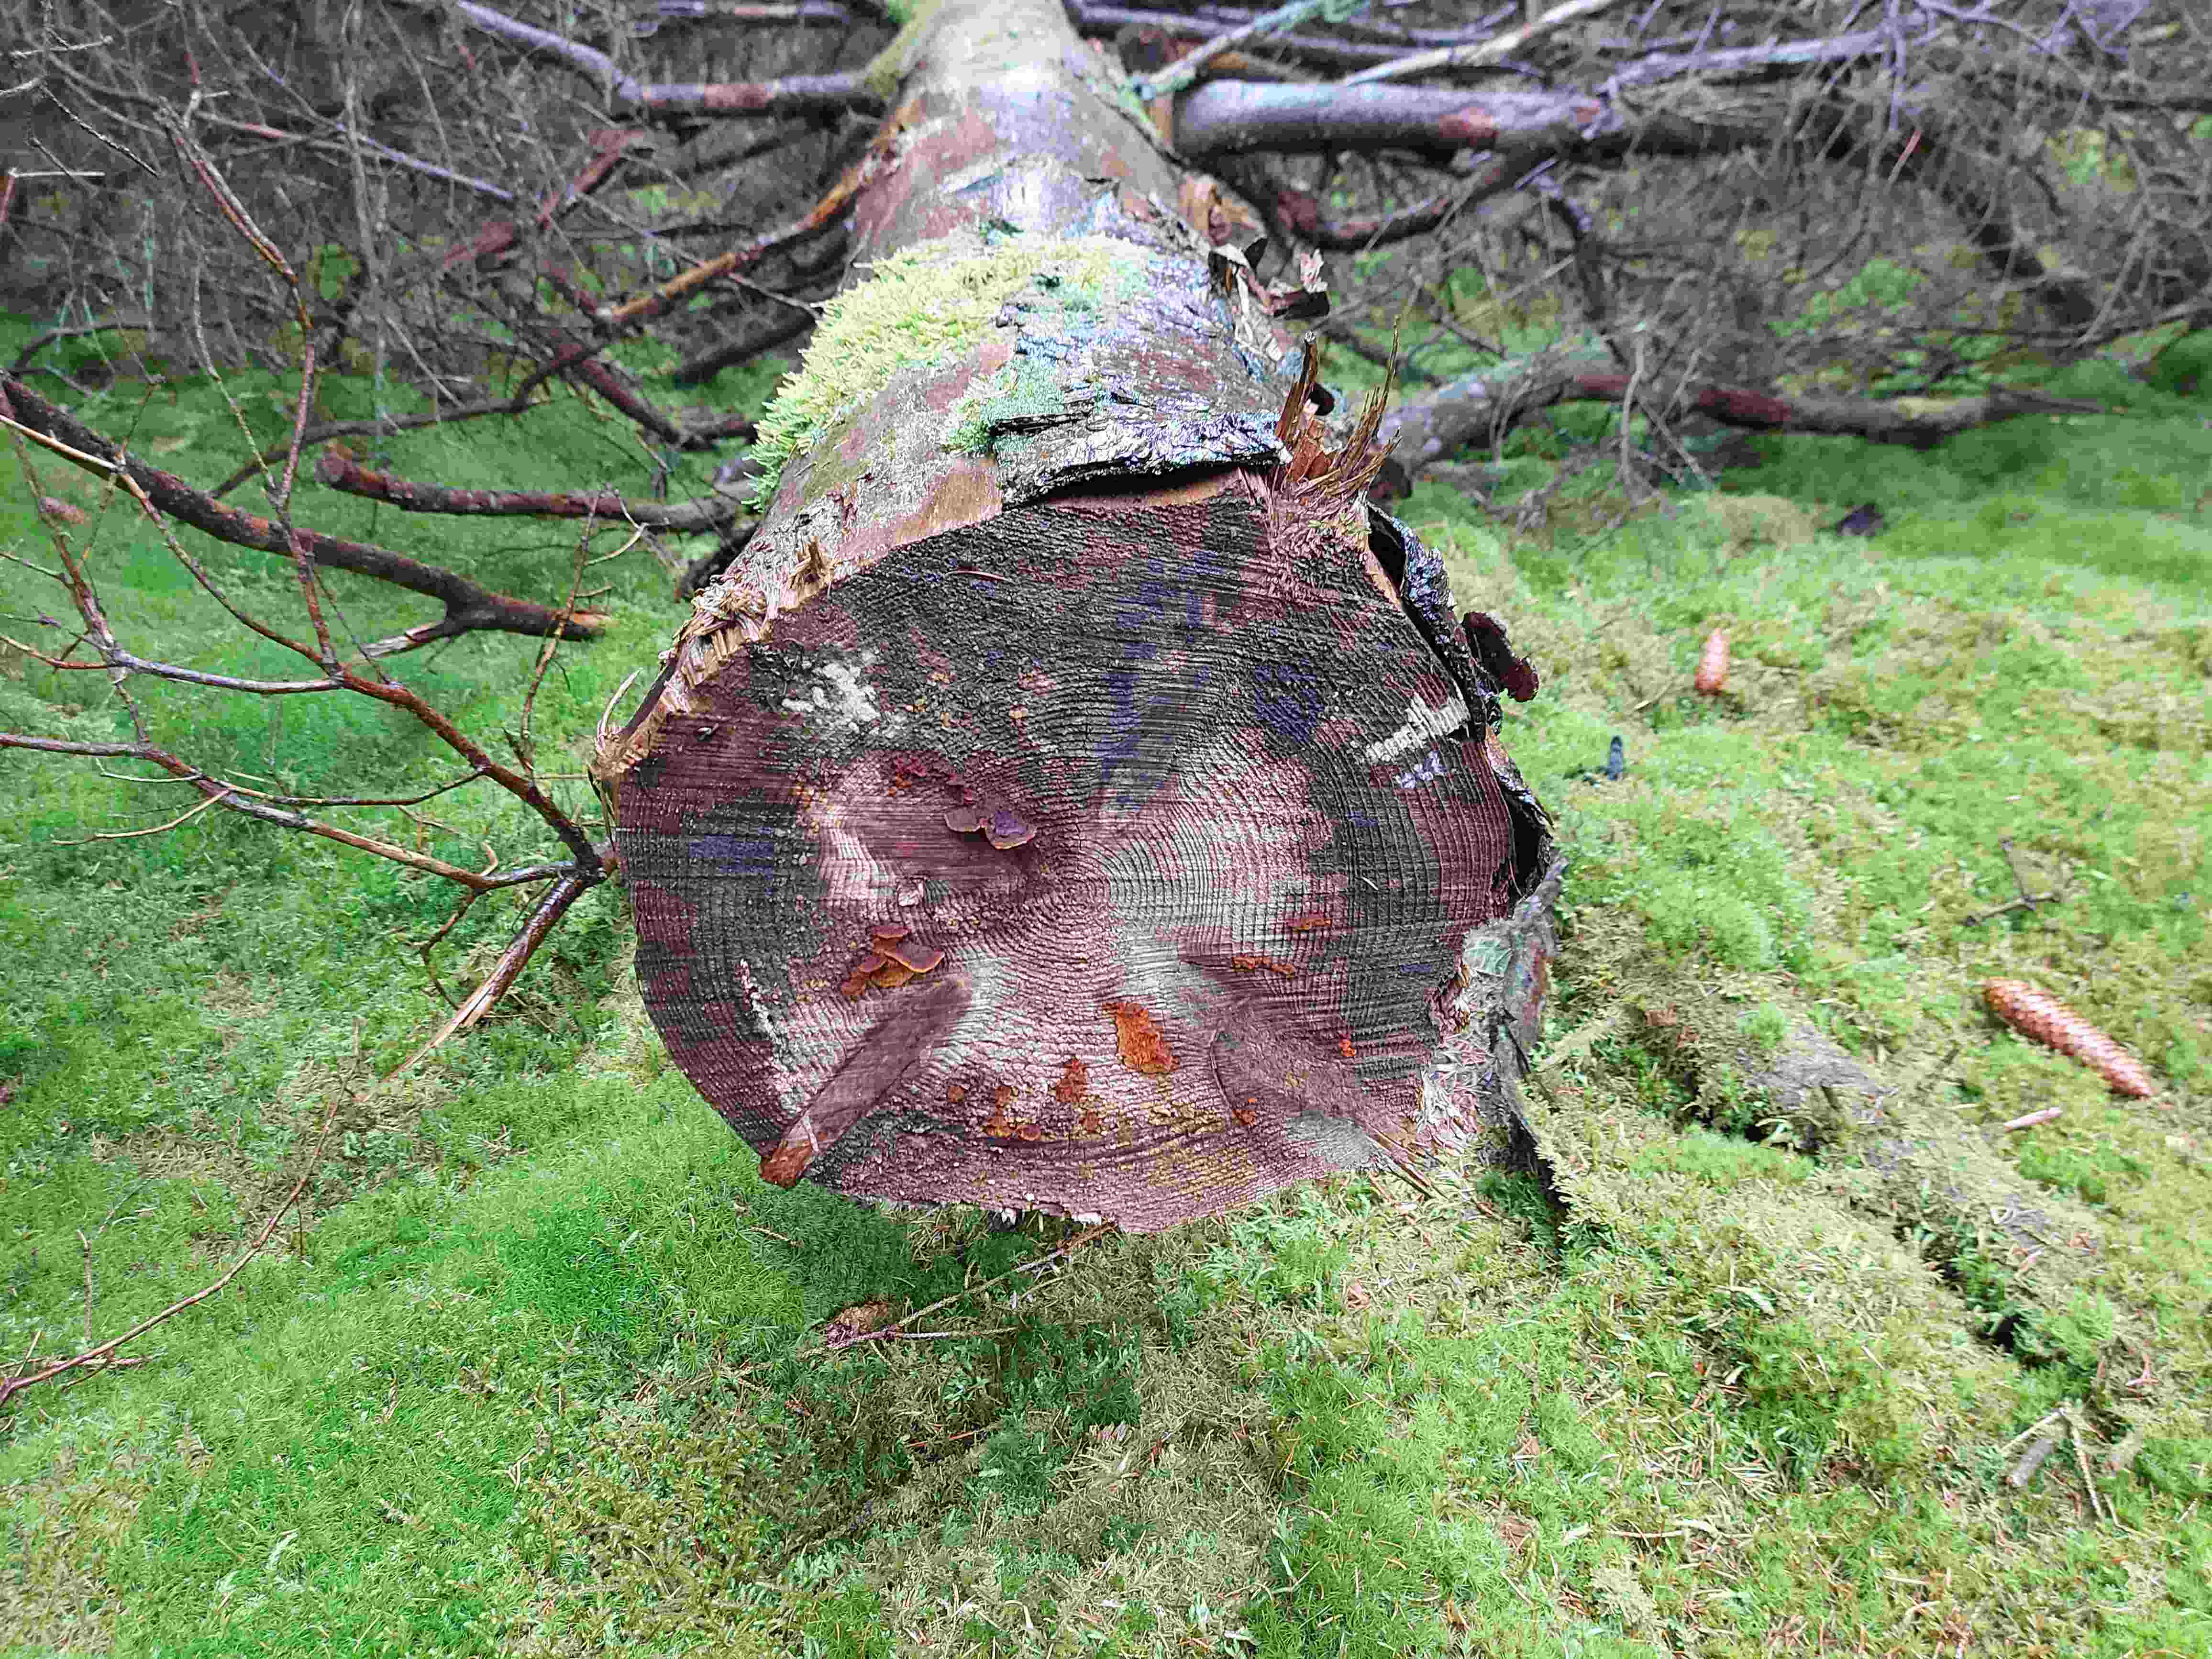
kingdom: Fungi
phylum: Basidiomycota
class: Agaricomycetes
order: Gloeophyllales
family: Gloeophyllaceae
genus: Gloeophyllum
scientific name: Gloeophyllum sepiarium
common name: fyrre-korkhat
